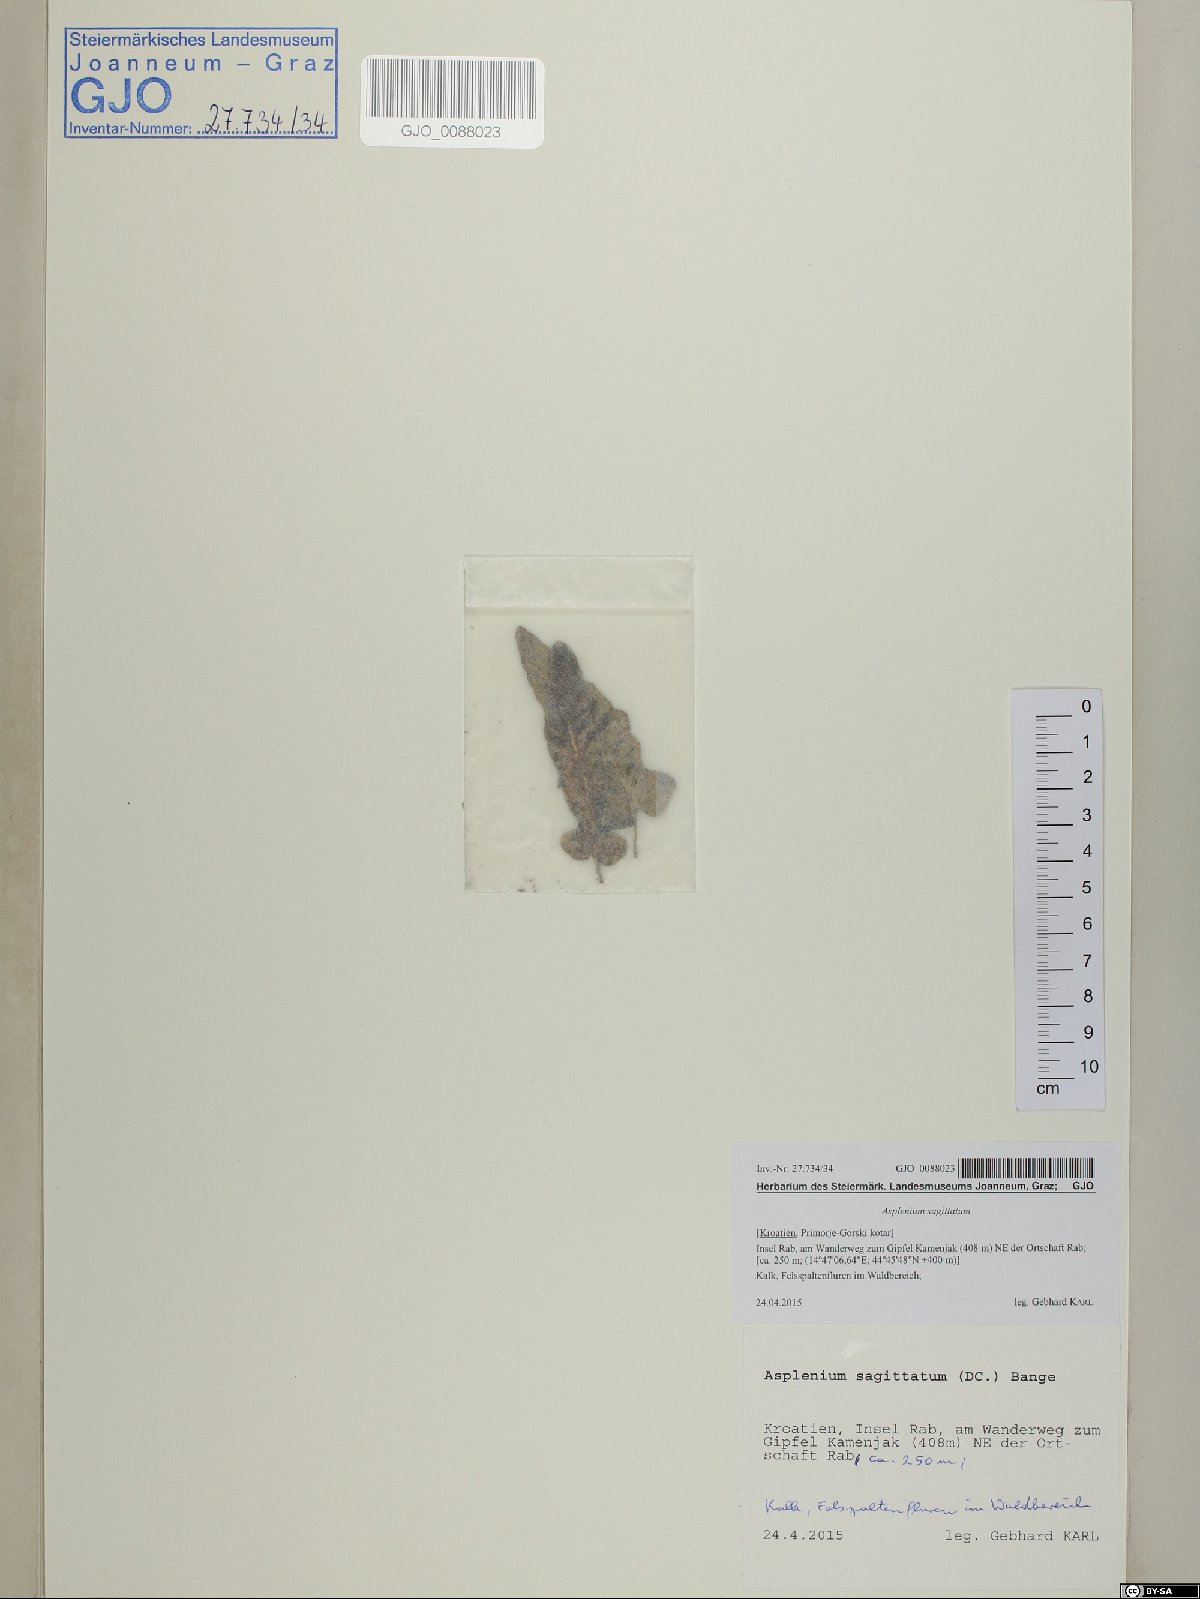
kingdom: Plantae
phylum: Tracheophyta
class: Polypodiopsida
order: Polypodiales
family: Aspleniaceae
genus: Asplenium
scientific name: Asplenium sagittatum
